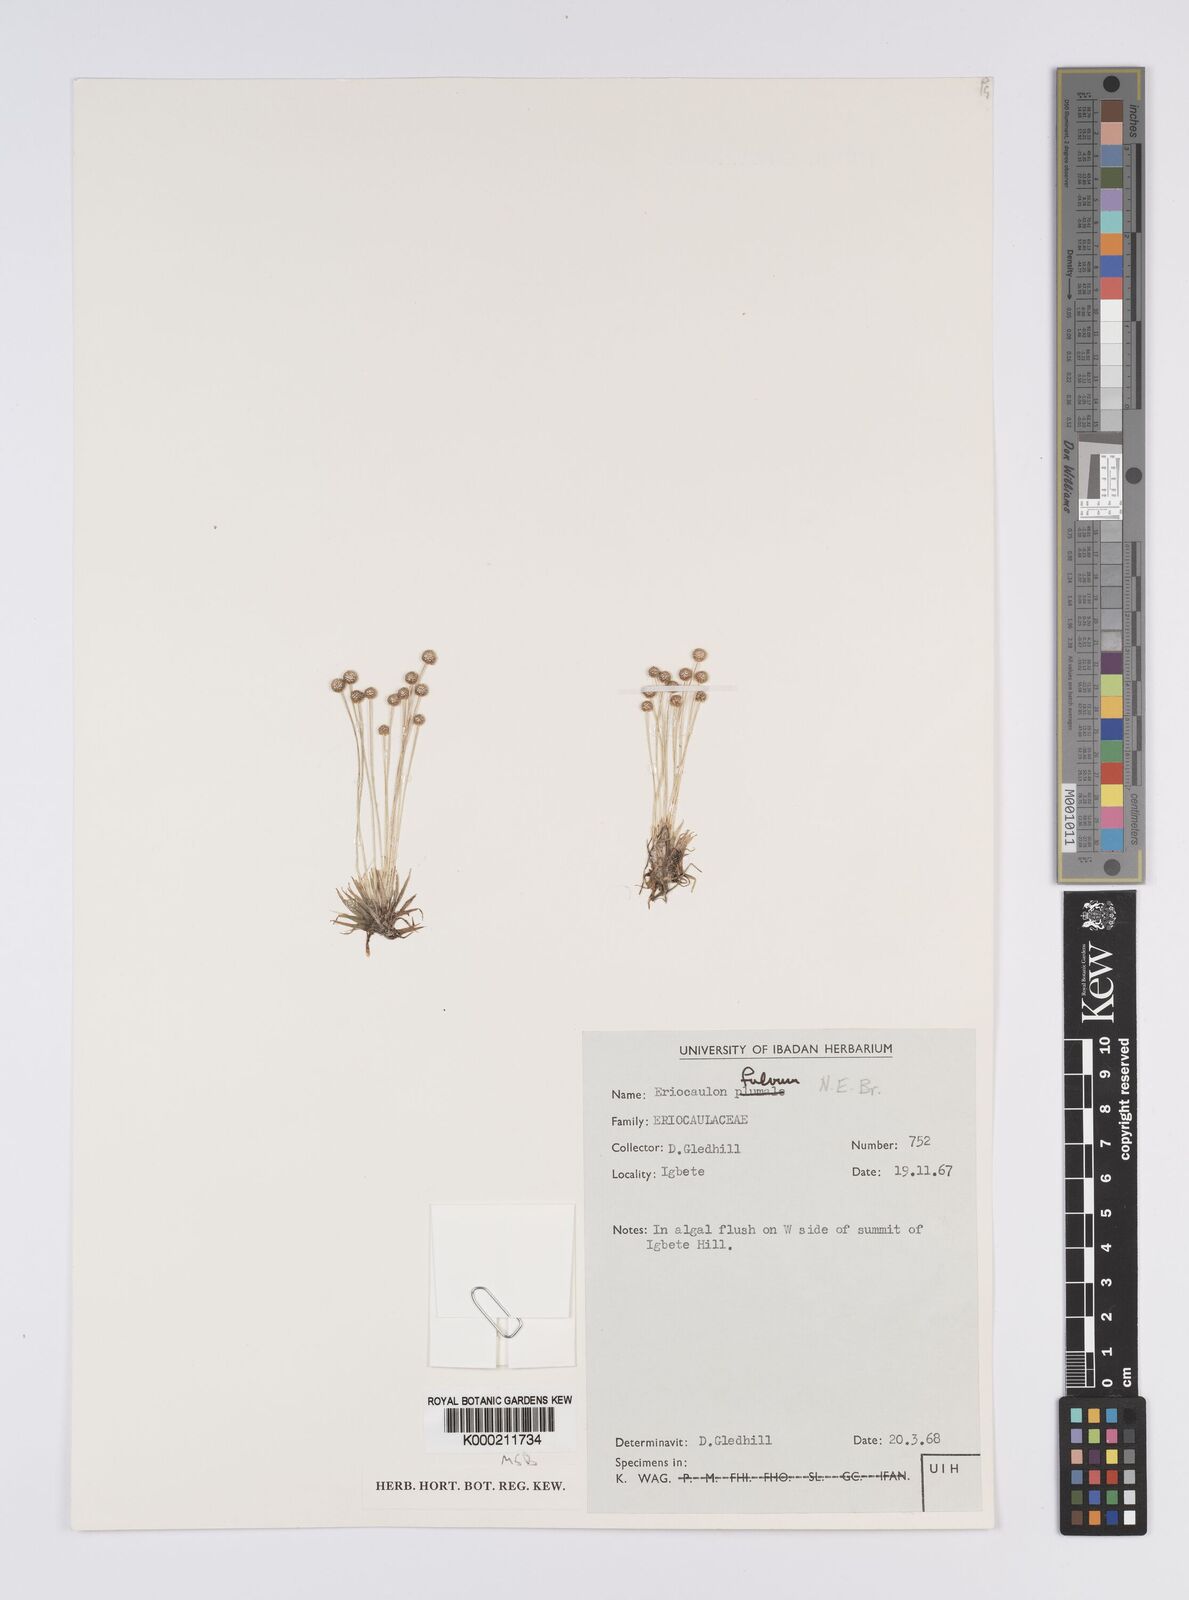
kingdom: Plantae
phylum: Tracheophyta
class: Liliopsida
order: Poales
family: Eriocaulaceae
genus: Eriocaulon
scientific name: Eriocaulon fulvum
